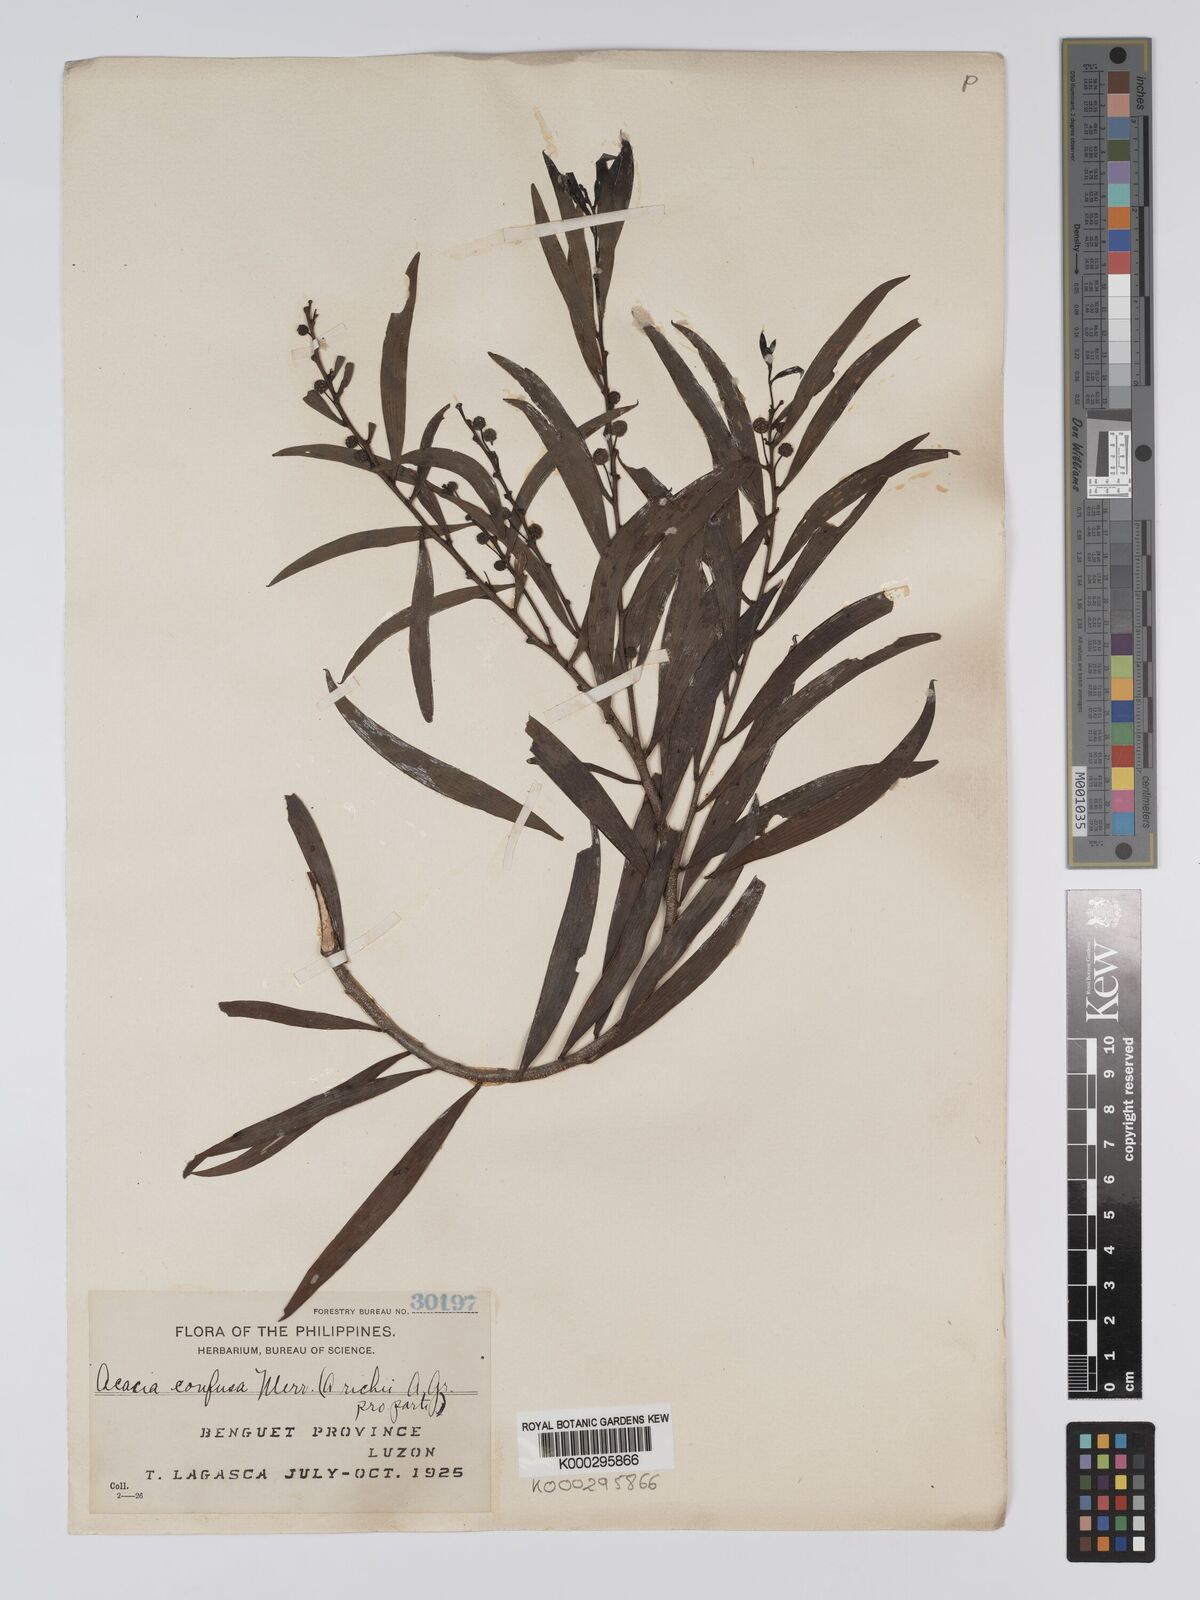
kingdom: Plantae
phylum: Tracheophyta
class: Magnoliopsida
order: Fabales
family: Fabaceae
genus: Acacia
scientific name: Acacia confusa
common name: Formosan koa
